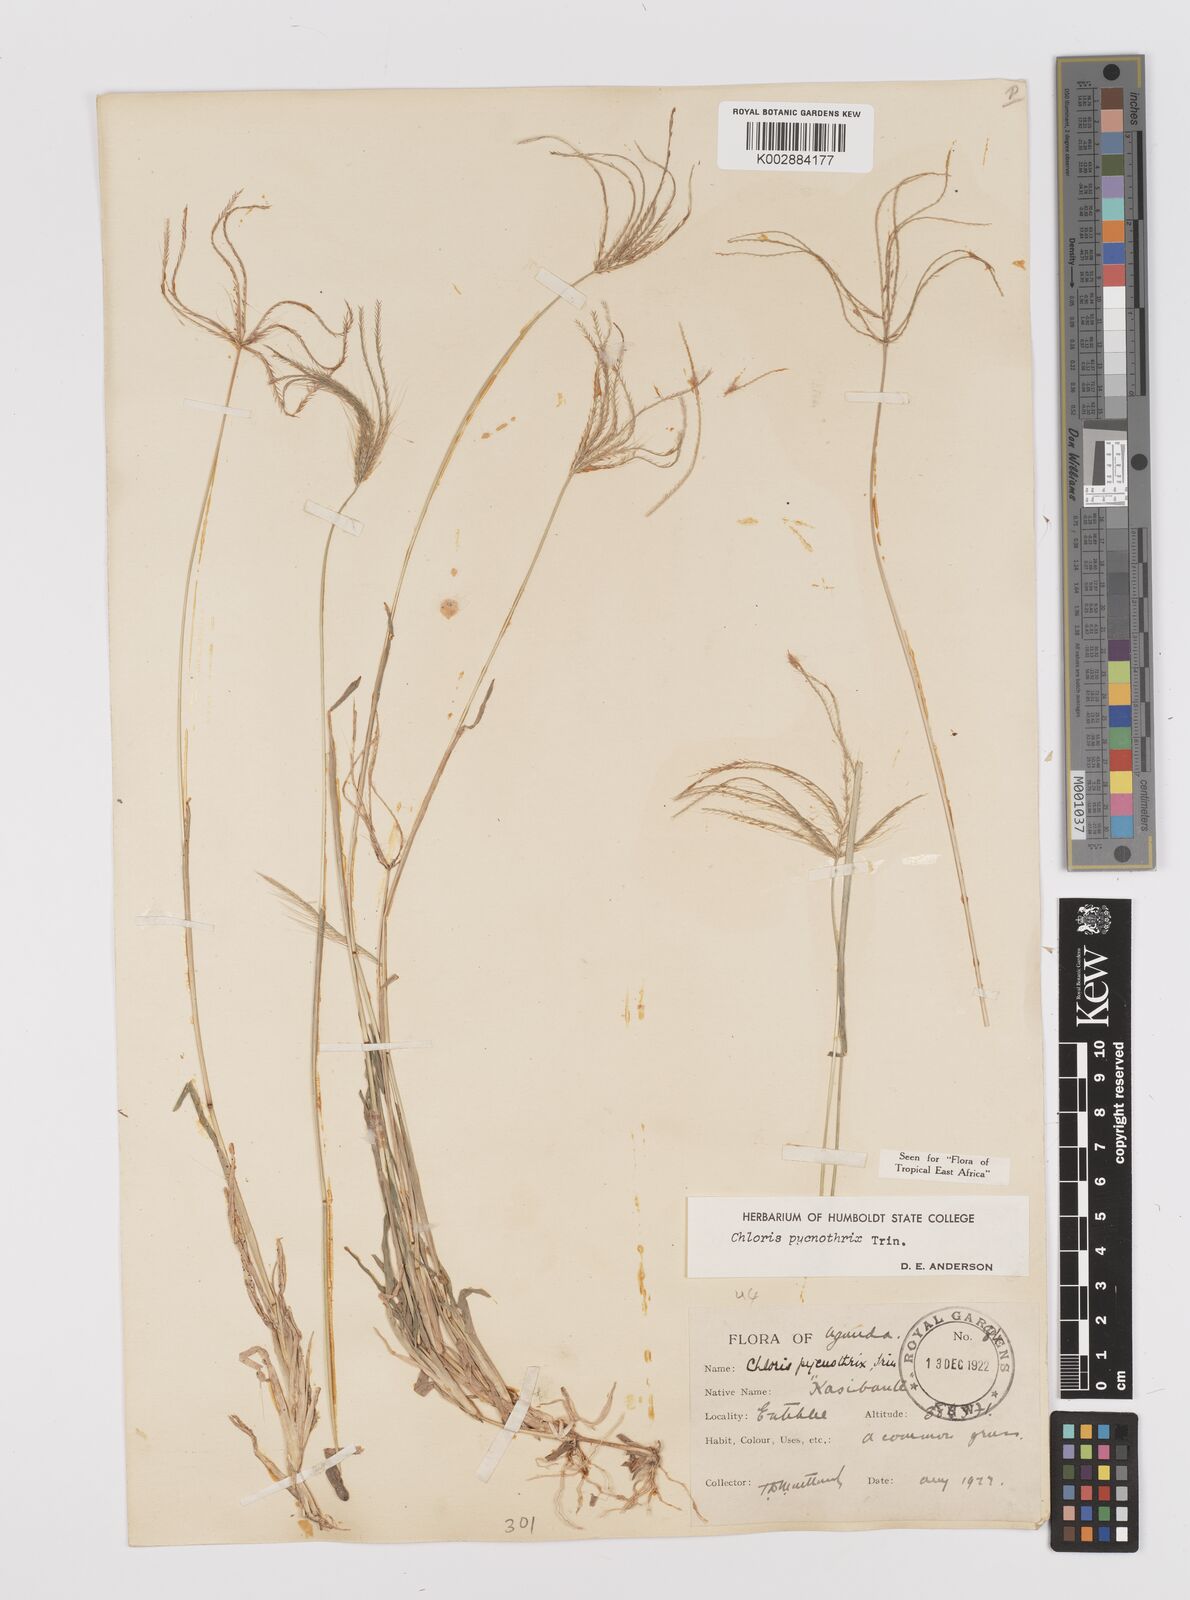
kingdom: Plantae
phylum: Tracheophyta
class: Liliopsida
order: Poales
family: Poaceae
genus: Chloris
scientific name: Chloris pycnothrix
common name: Spiderweb chloris
